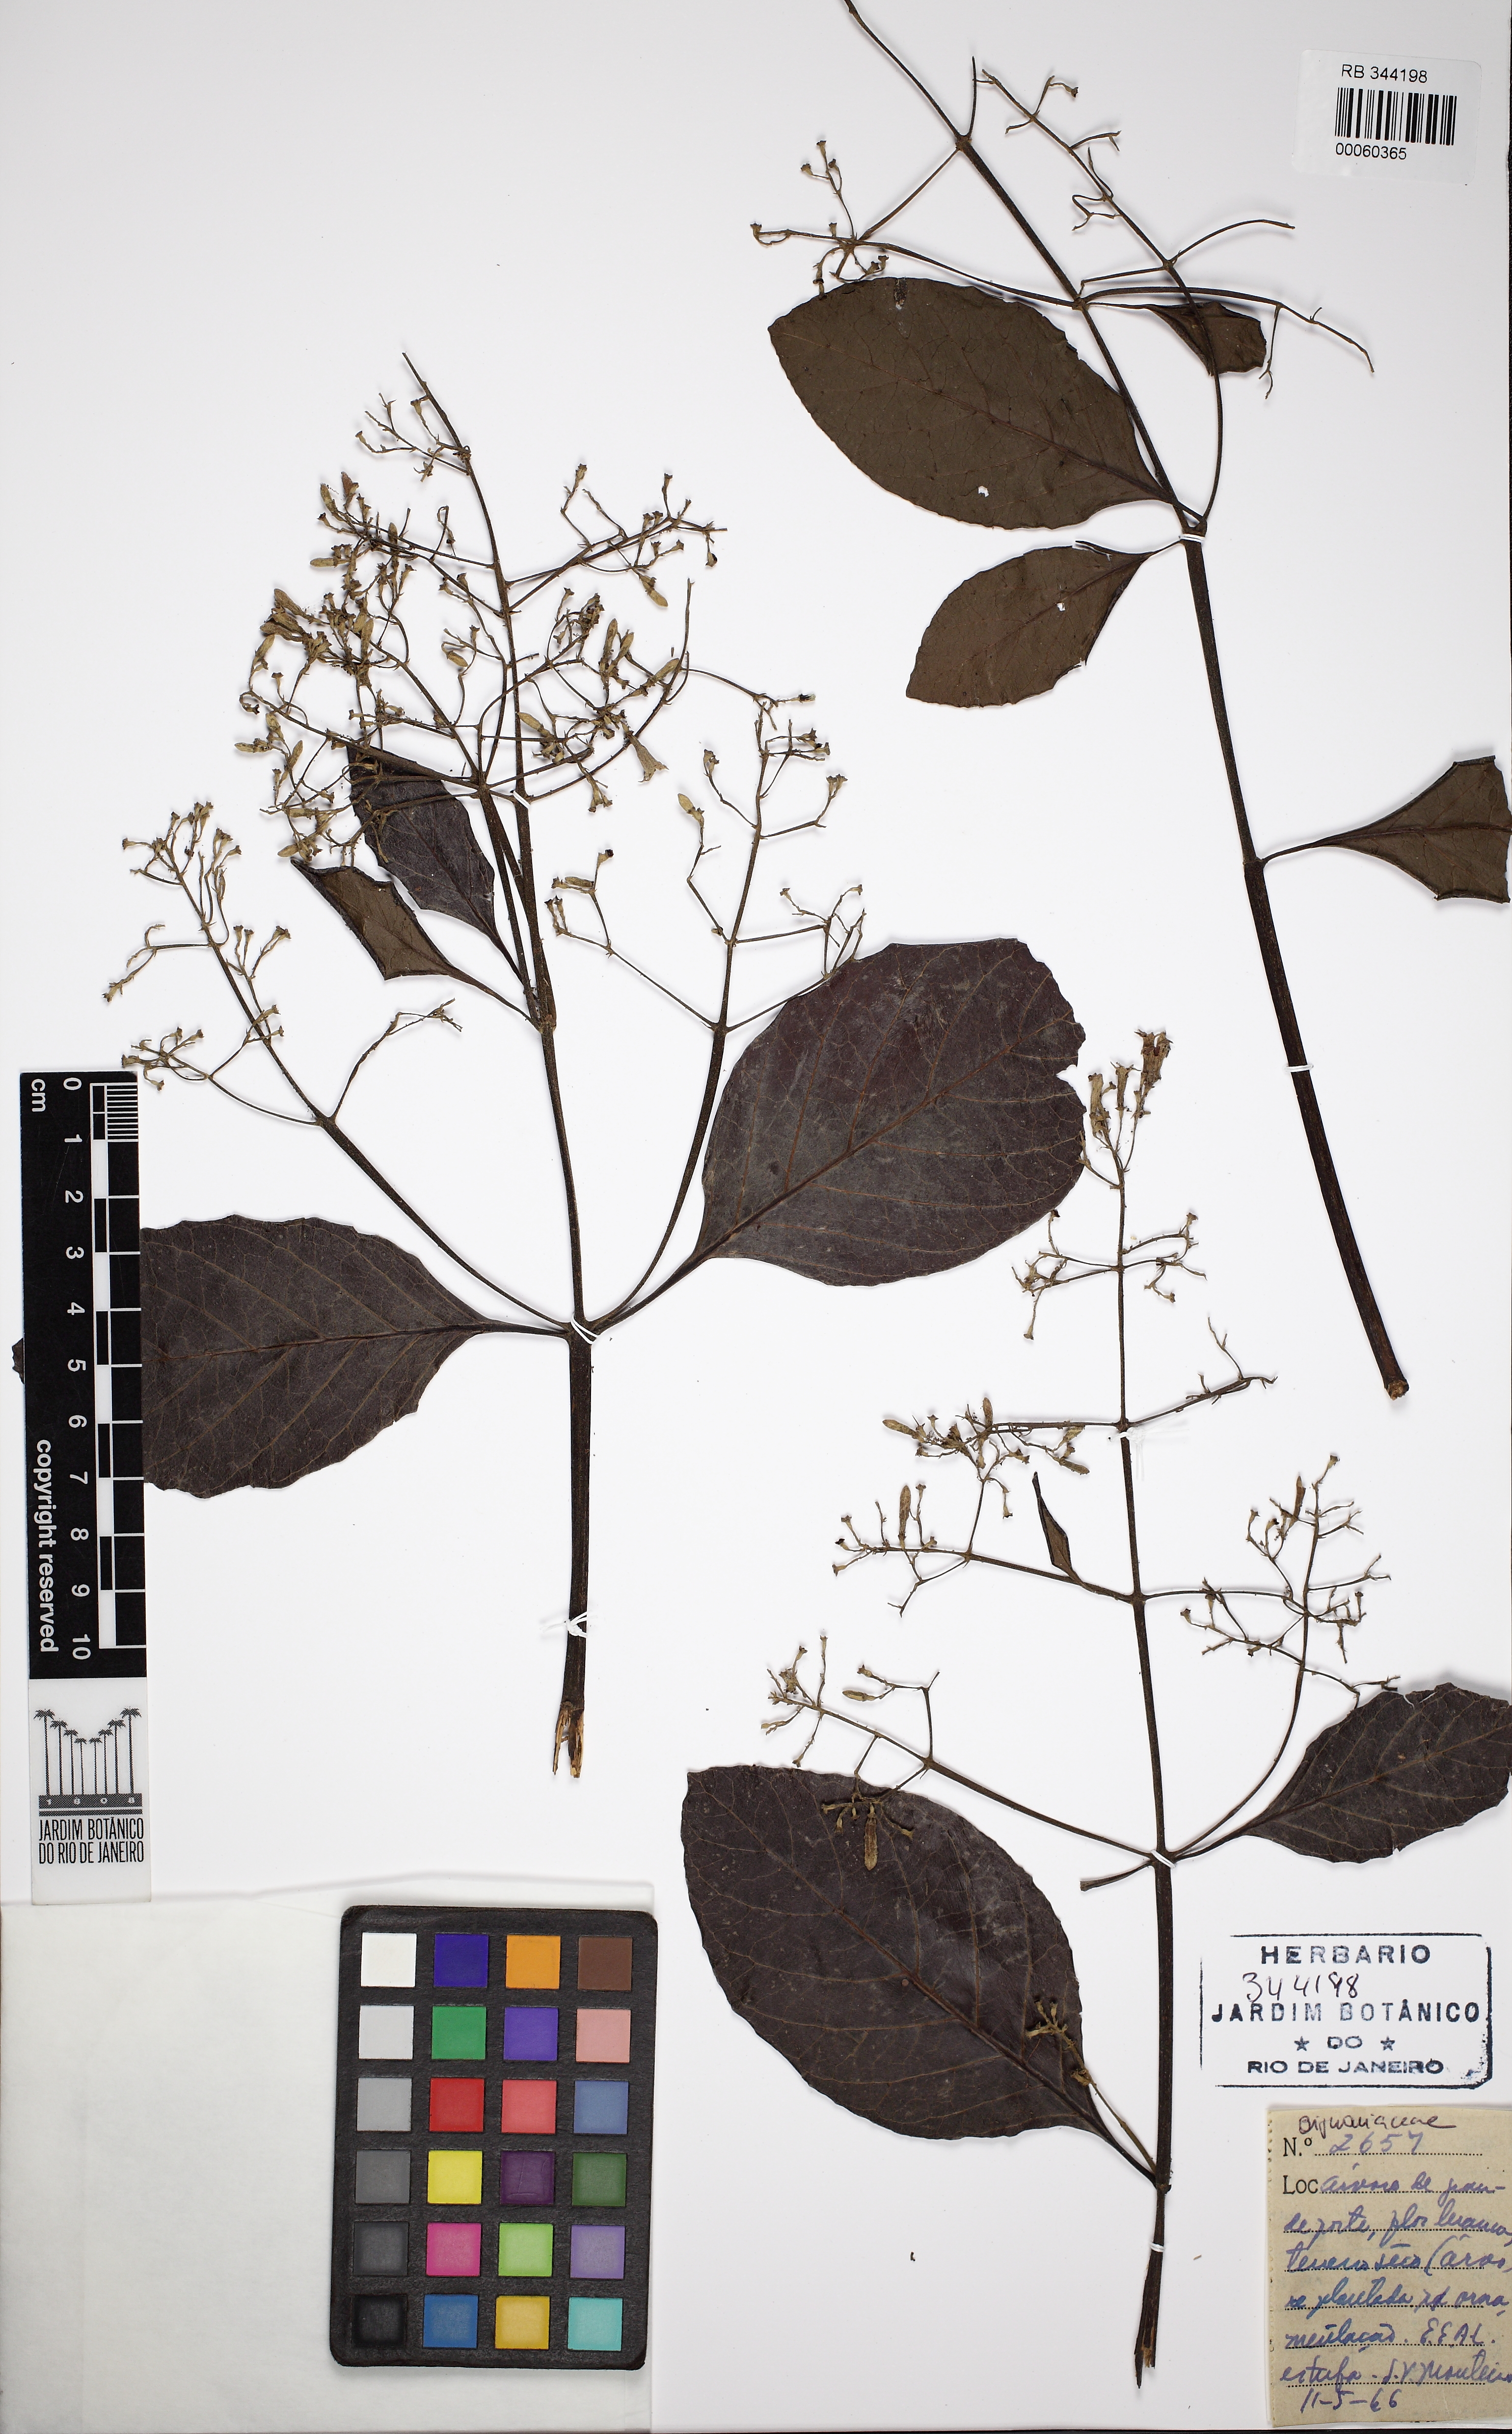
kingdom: Plantae
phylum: Tracheophyta
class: Magnoliopsida
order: Gentianales
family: Rubiaceae
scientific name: Rubiaceae
